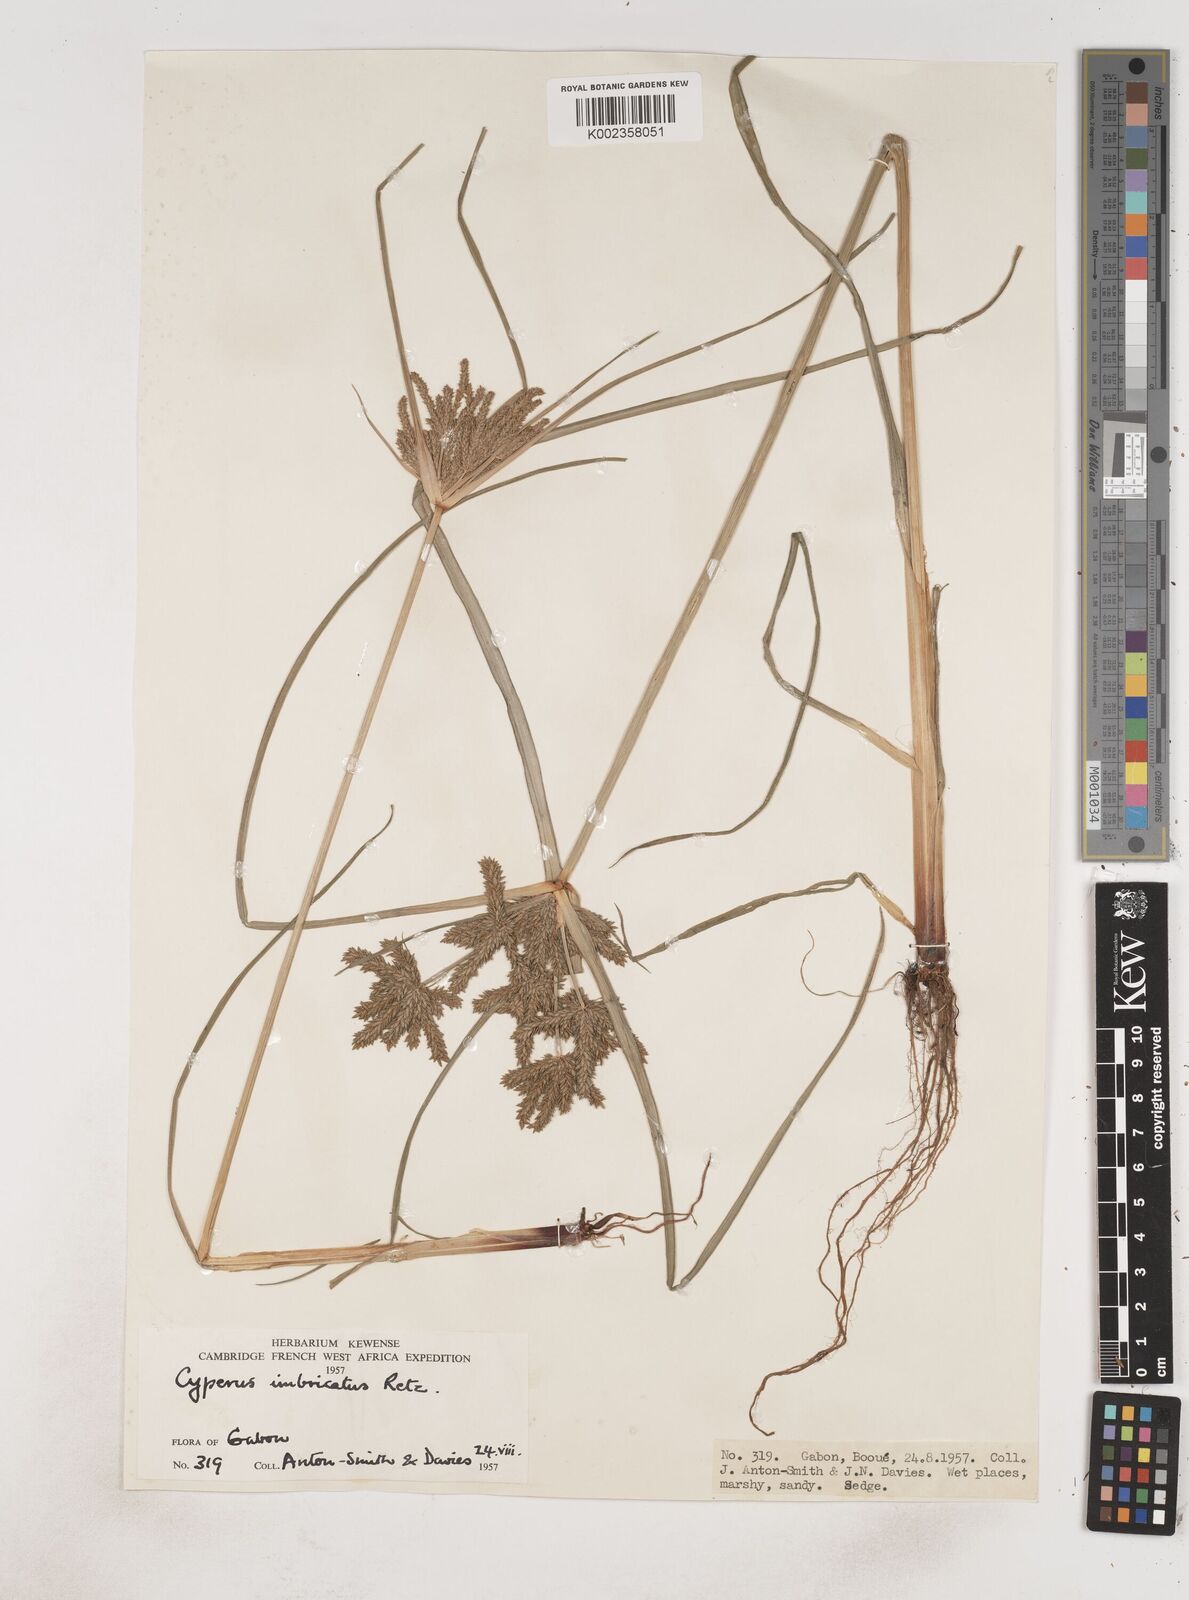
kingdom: Plantae
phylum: Tracheophyta
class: Liliopsida
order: Poales
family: Cyperaceae
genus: Cyperus
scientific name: Cyperus imbricatus
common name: Shingle flatsedge
